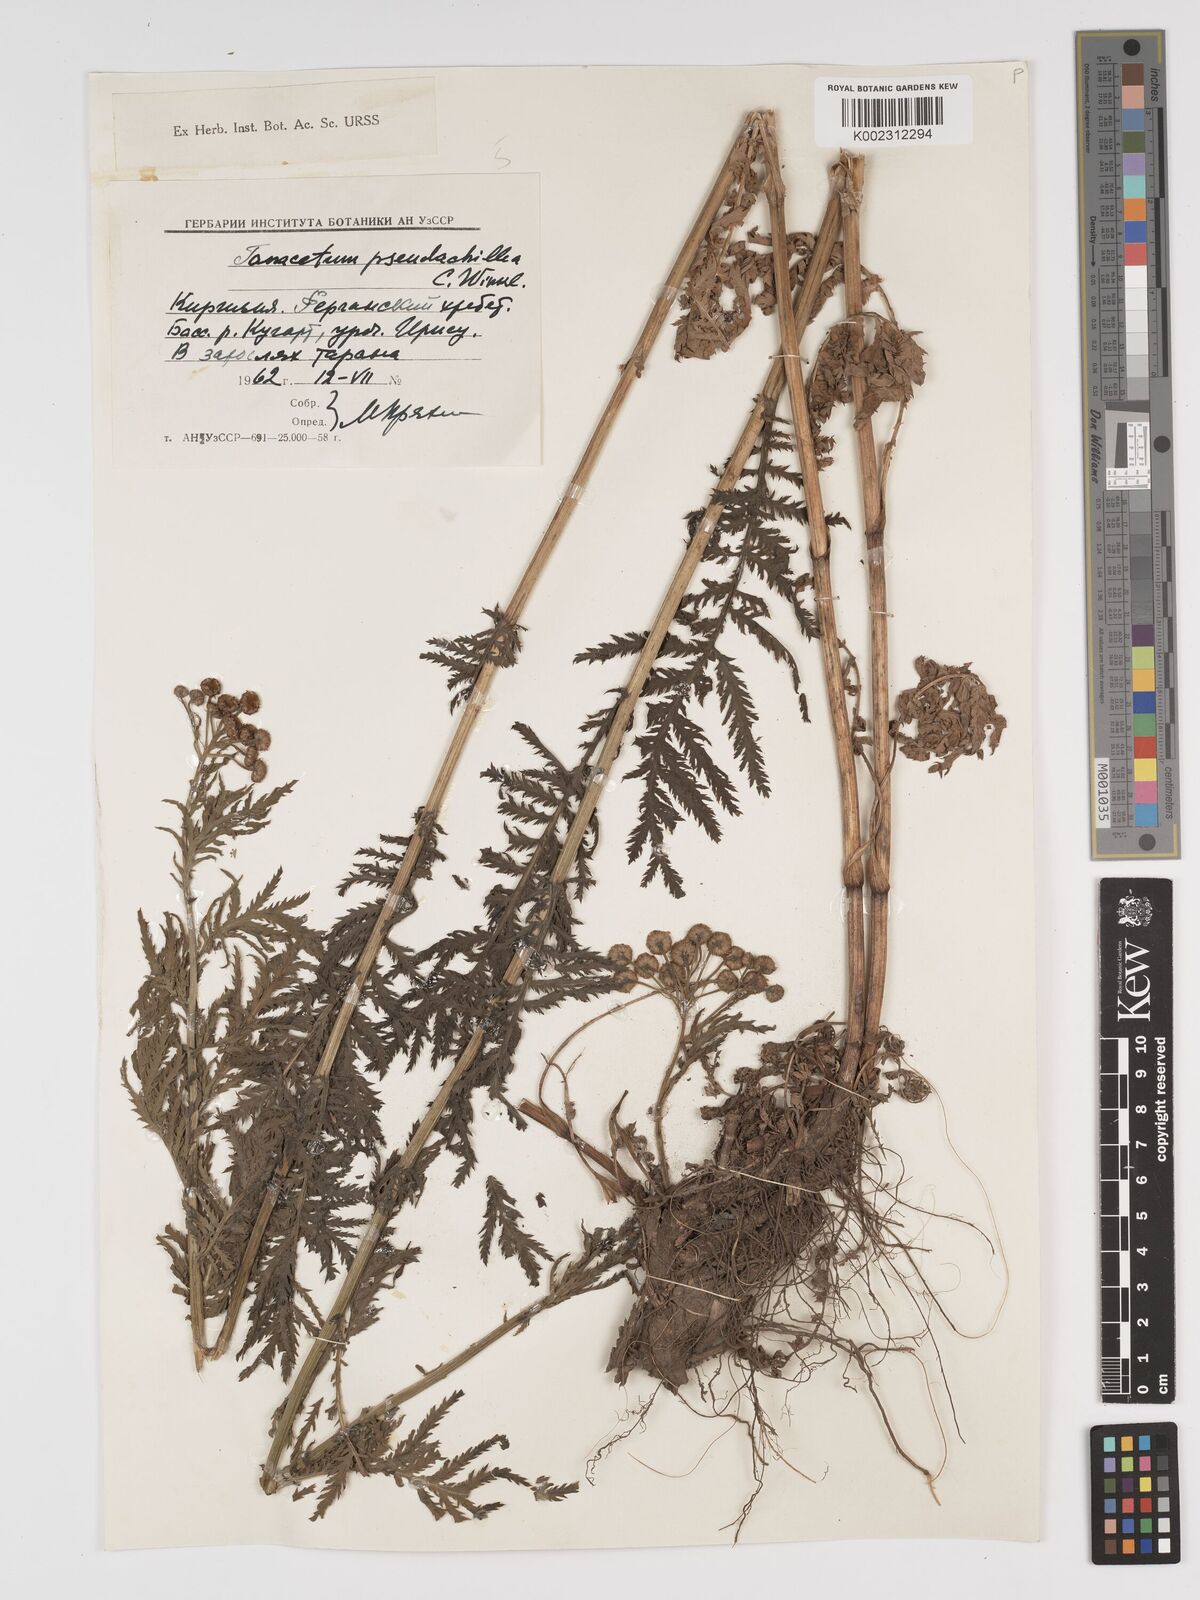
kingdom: Plantae
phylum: Tracheophyta
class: Magnoliopsida
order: Asterales
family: Asteraceae
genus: Lepidolopsis
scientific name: Lepidolopsis pseudoachillea
